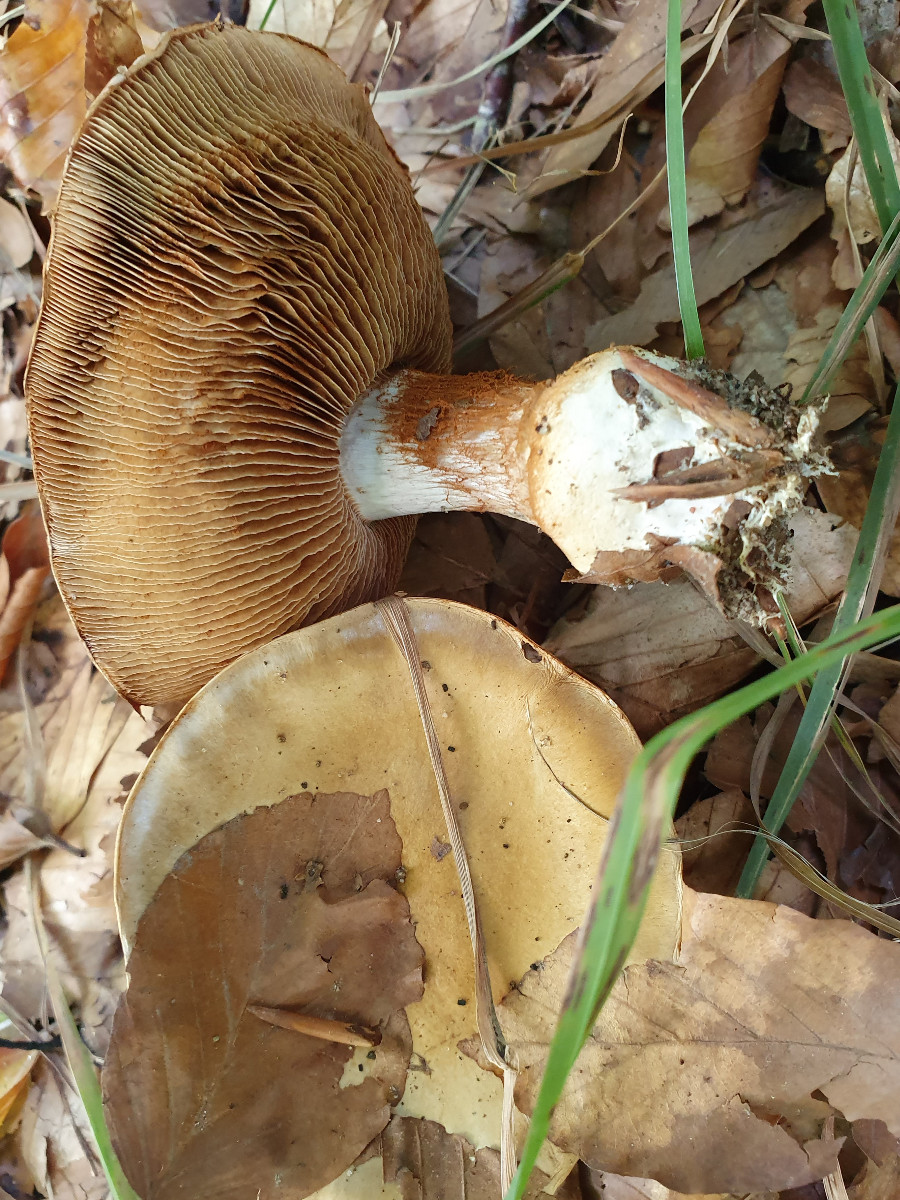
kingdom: Fungi
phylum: Basidiomycota
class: Agaricomycetes
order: Agaricales
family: Cortinariaceae
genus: Cortinarius
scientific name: Cortinarius anserinus
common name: bøge-slørhat
